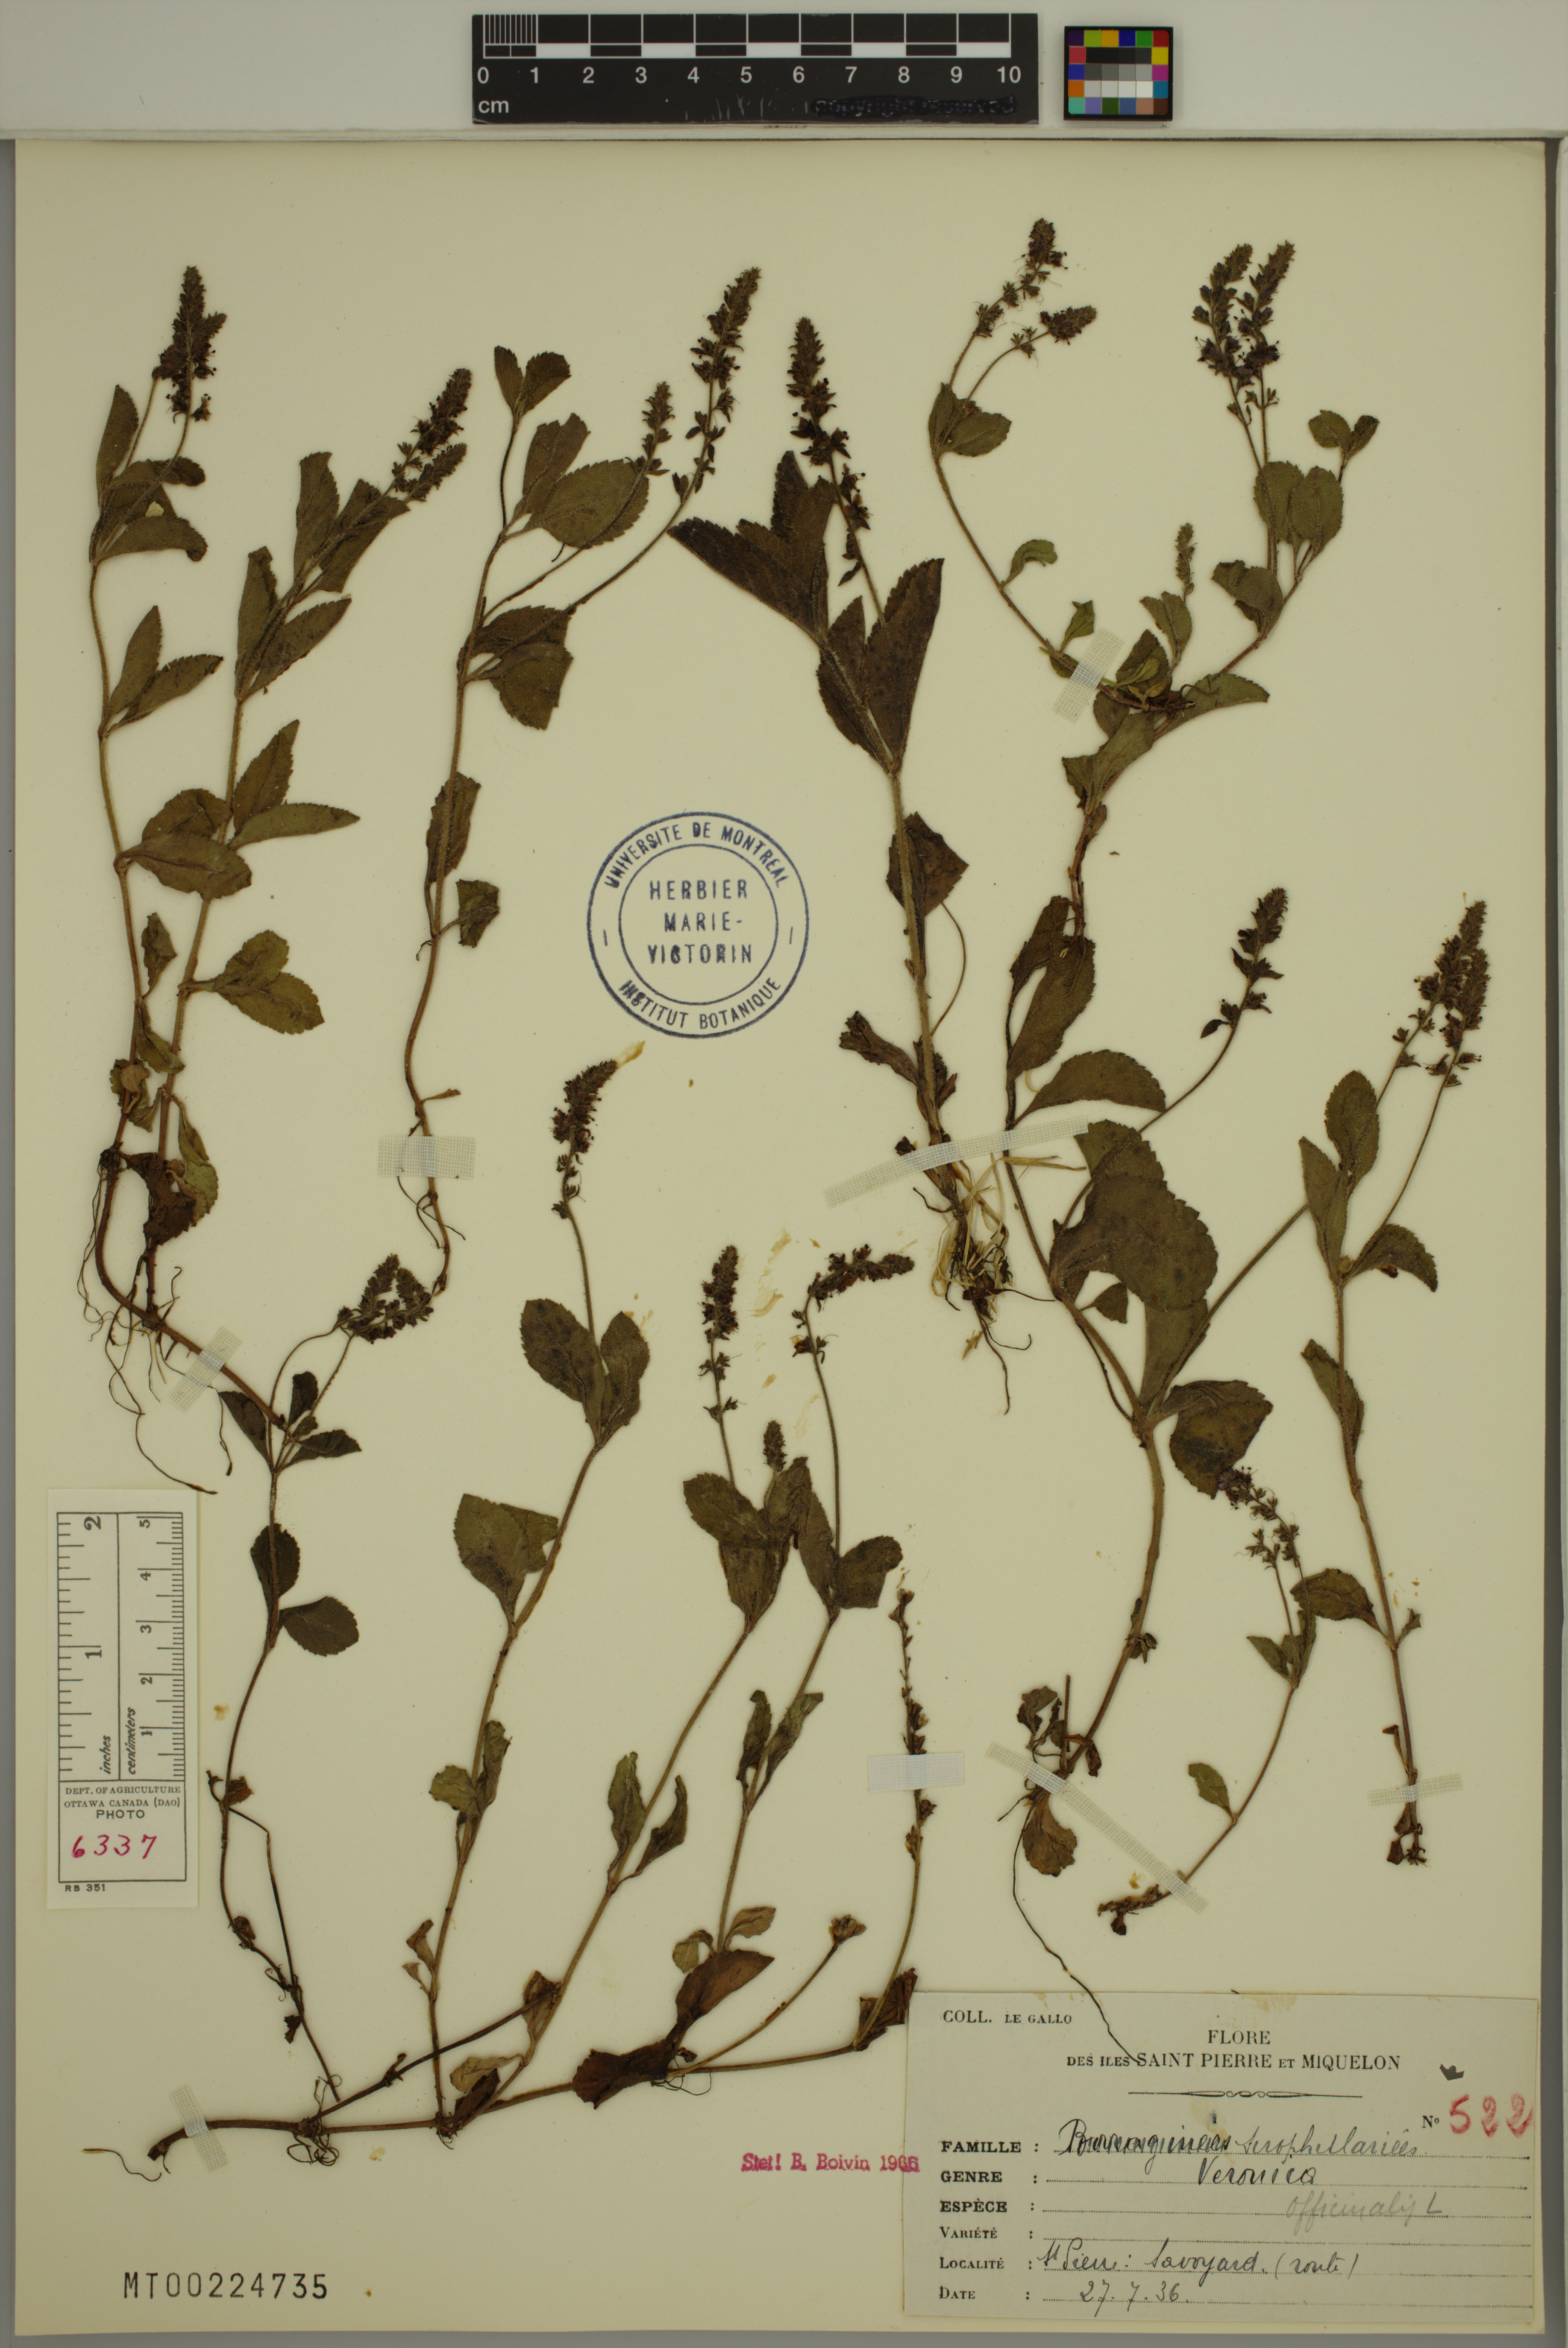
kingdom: Plantae
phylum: Tracheophyta
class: Magnoliopsida
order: Lamiales
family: Plantaginaceae
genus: Veronica
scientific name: Veronica officinalis
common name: Common speedwell
